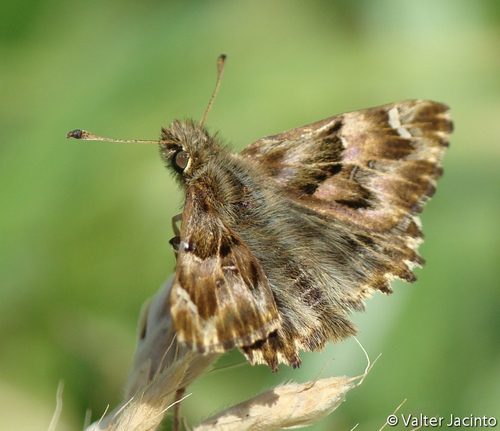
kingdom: Animalia
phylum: Arthropoda
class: Insecta
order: Lepidoptera
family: Hesperiidae
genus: Carcharodus
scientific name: Carcharodus alceae
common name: Mallow skipper
